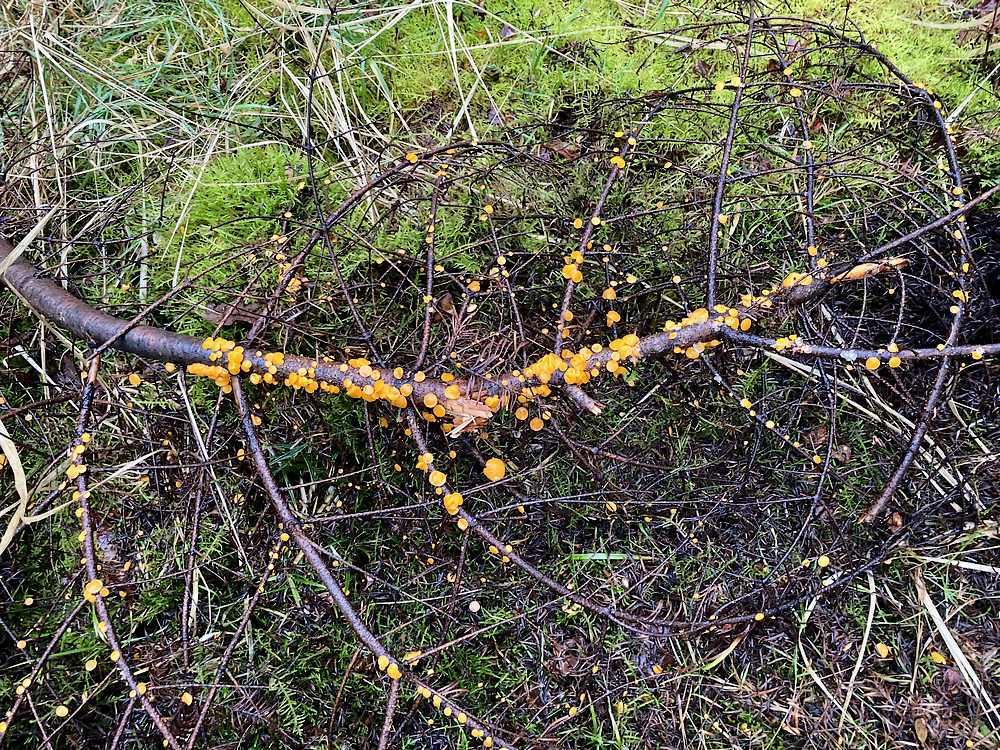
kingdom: Fungi
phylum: Ascomycota
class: Pezizomycetes
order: Pezizales
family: Sarcoscyphaceae
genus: Pithya
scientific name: Pithya vulgaris
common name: stor dukatbæger
